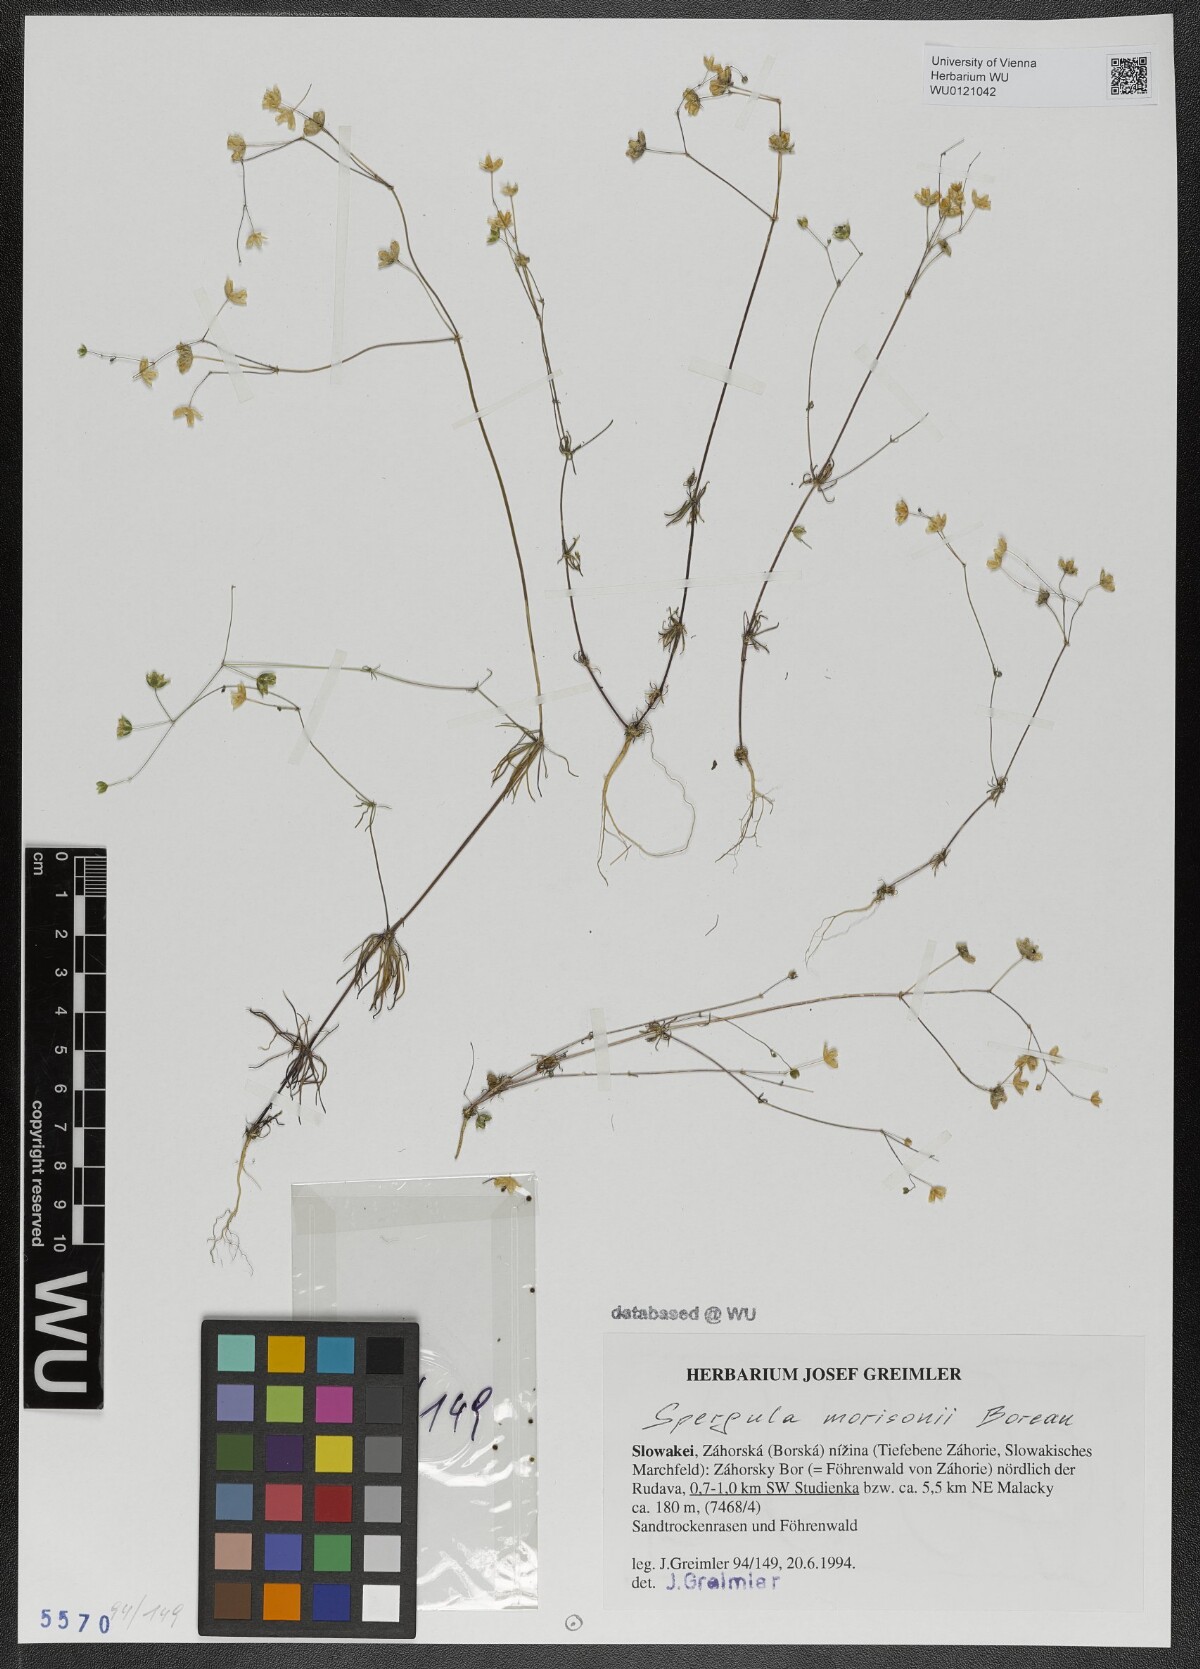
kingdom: Plantae
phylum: Tracheophyta
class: Magnoliopsida
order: Caryophyllales
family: Caryophyllaceae
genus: Spergula
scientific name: Spergula morisonii
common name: Pearlwort spurrey
